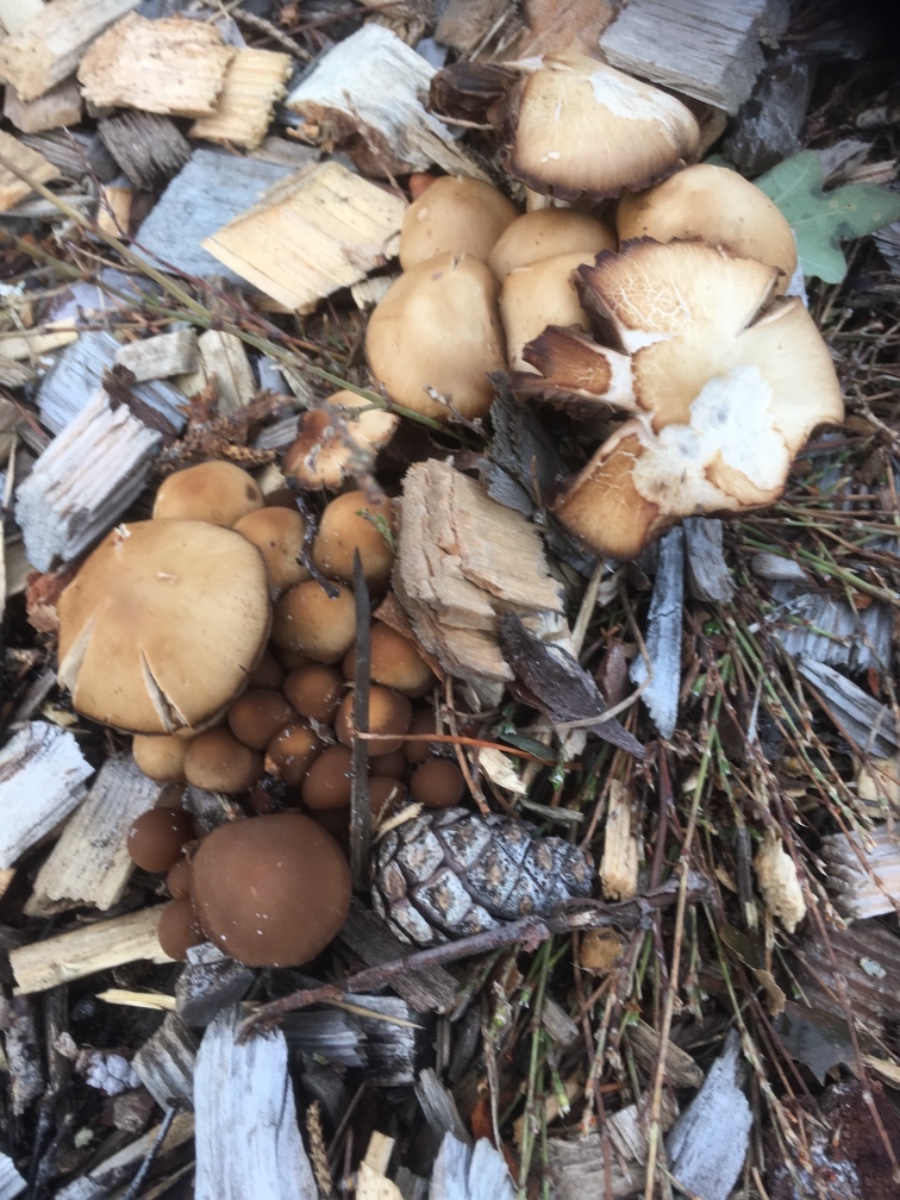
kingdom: Fungi
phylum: Basidiomycota
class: Agaricomycetes
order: Agaricales
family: Psathyrellaceae
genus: Psathyrella
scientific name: Psathyrella
